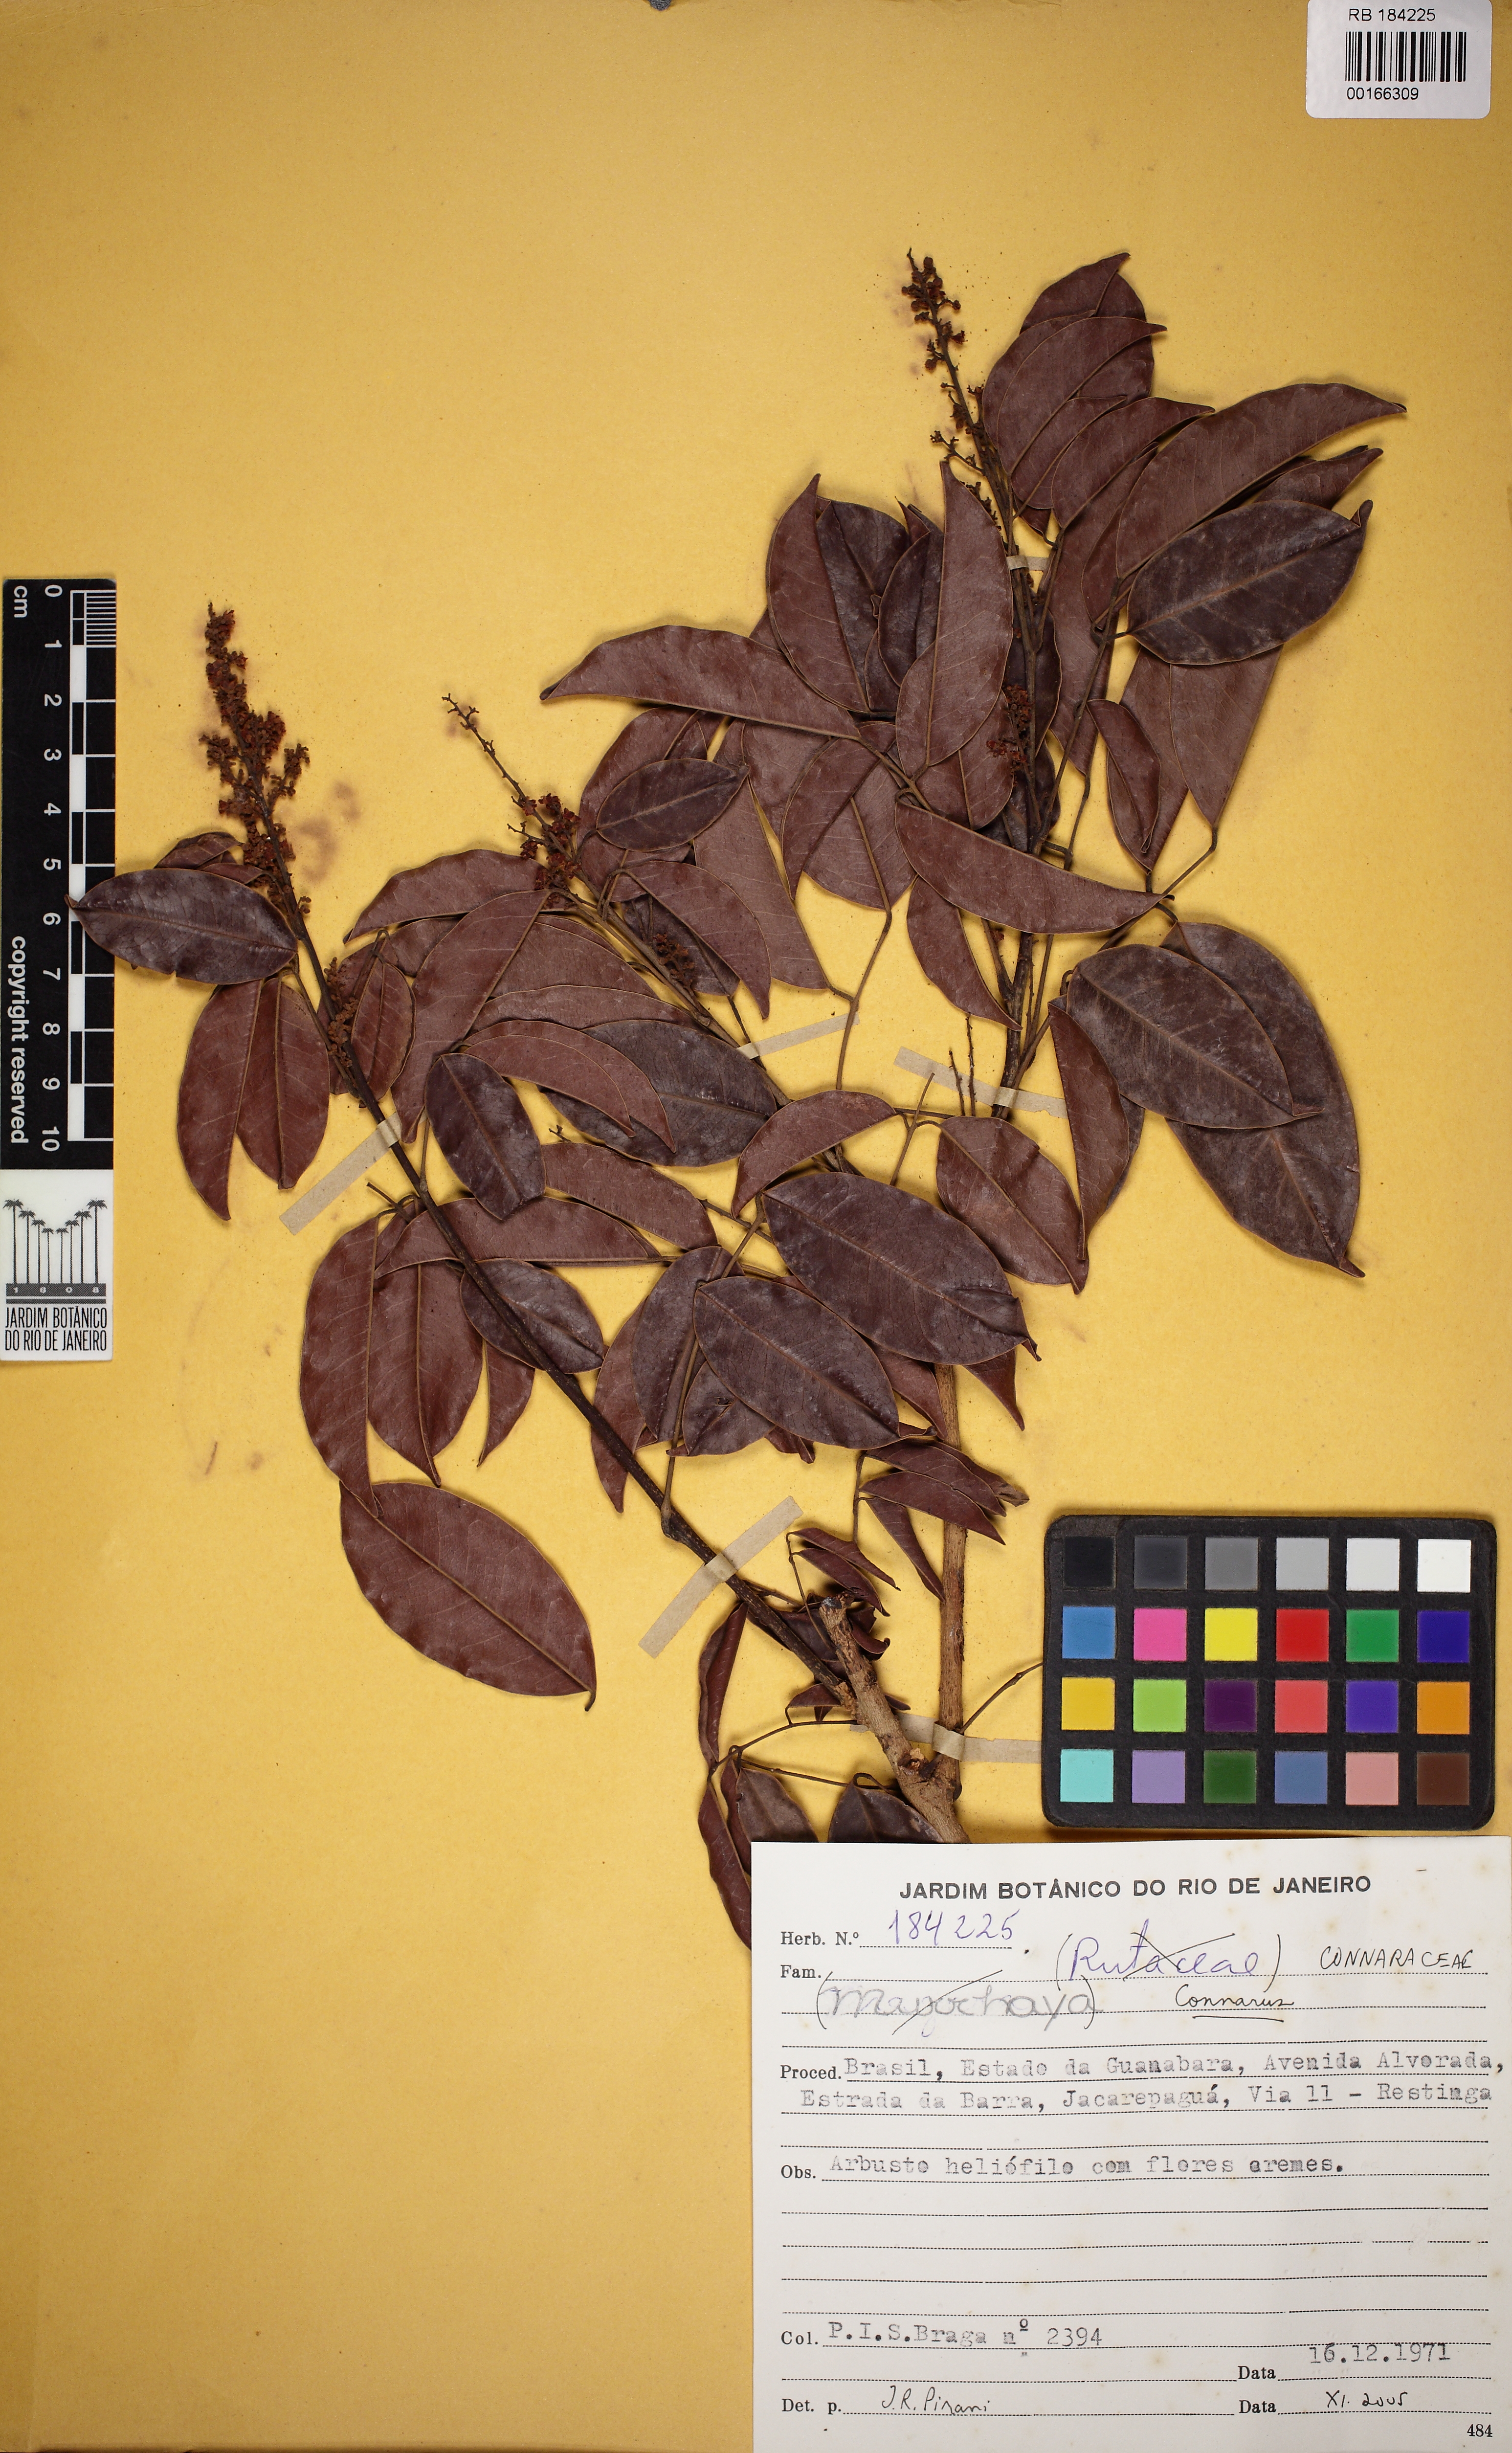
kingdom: Plantae
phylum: Tracheophyta
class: Magnoliopsida
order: Oxalidales
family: Connaraceae
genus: Connarus
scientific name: Connarus nodosus
